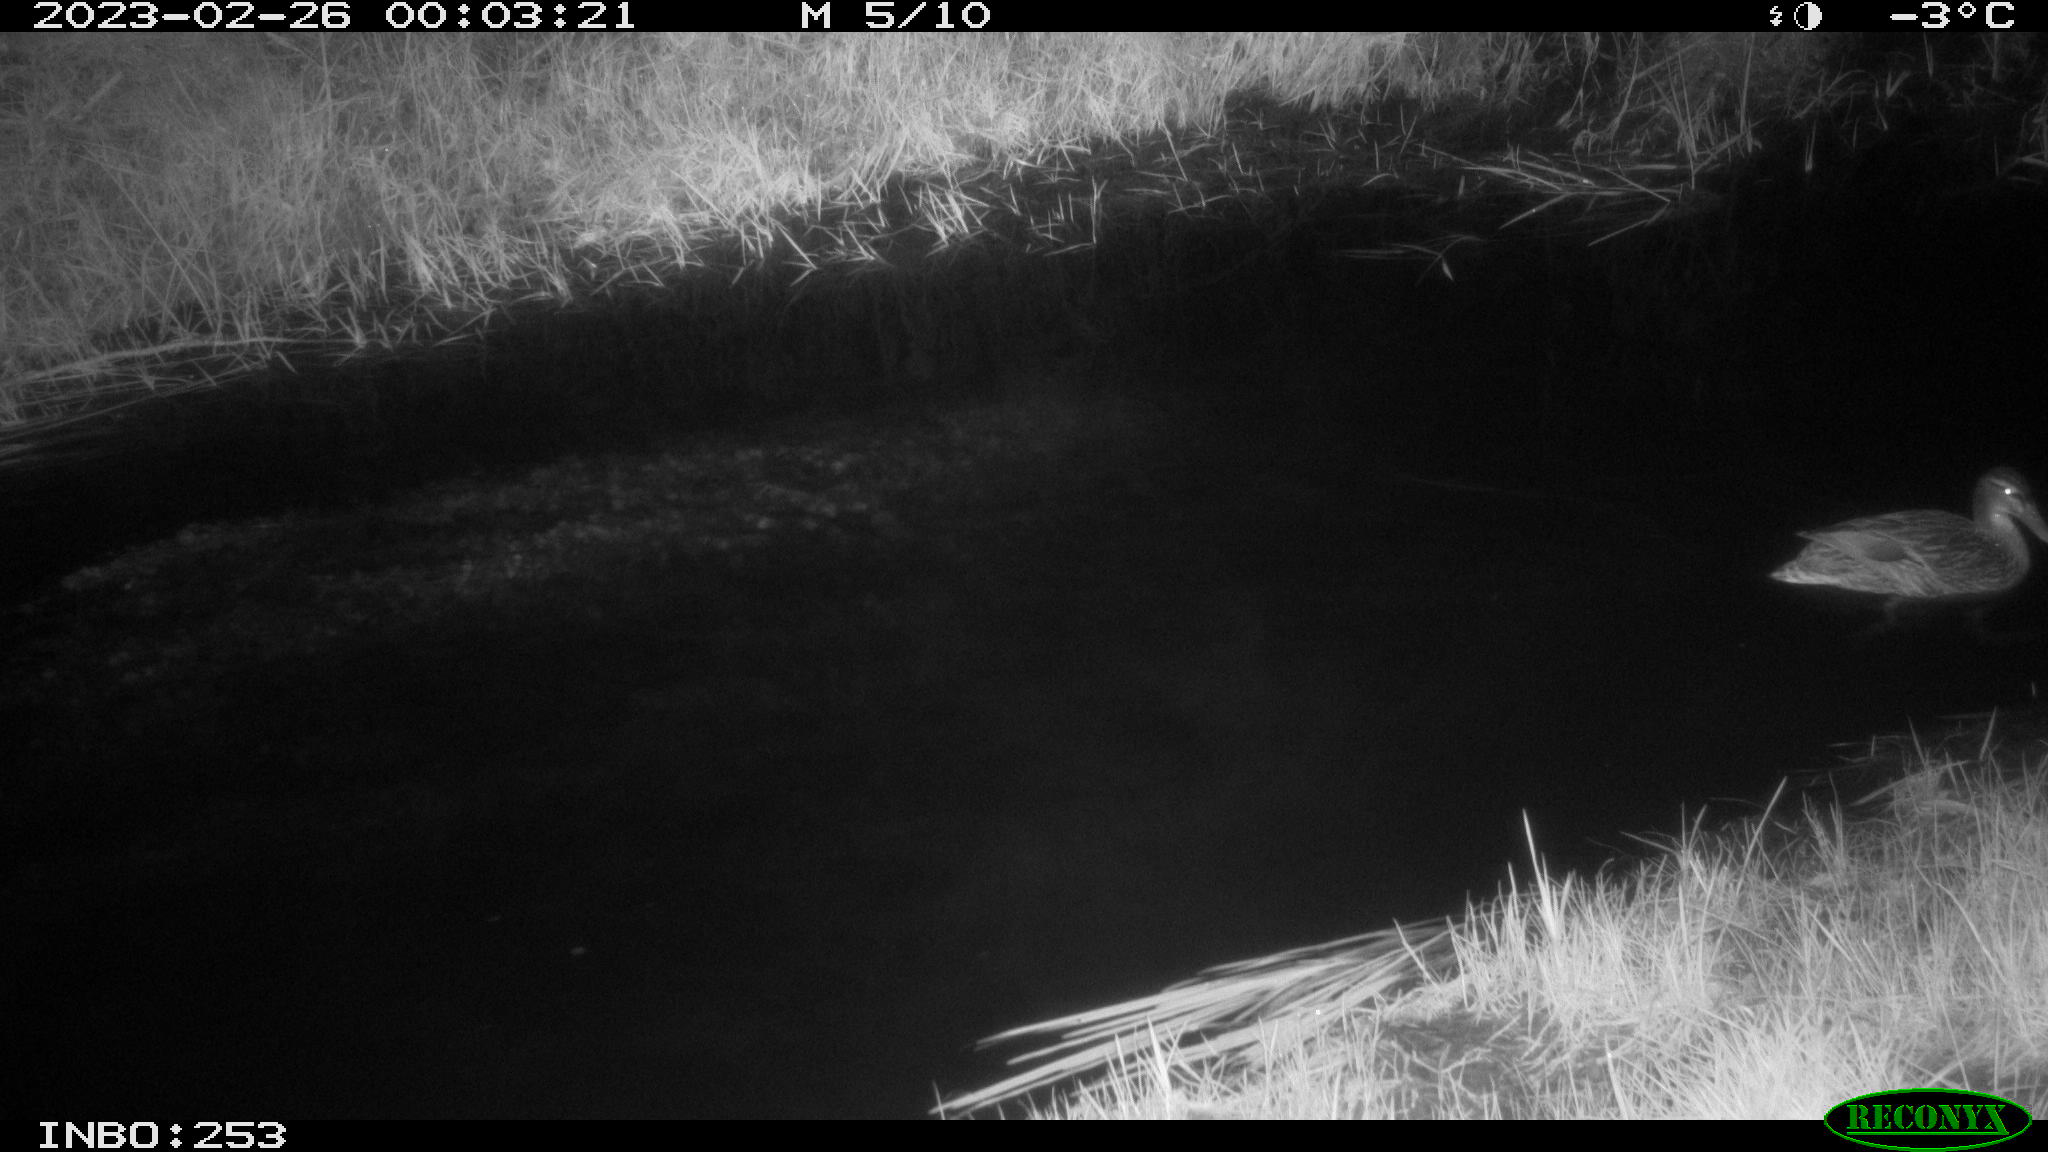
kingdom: Animalia
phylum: Chordata
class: Aves
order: Anseriformes
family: Anatidae
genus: Anas
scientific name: Anas
